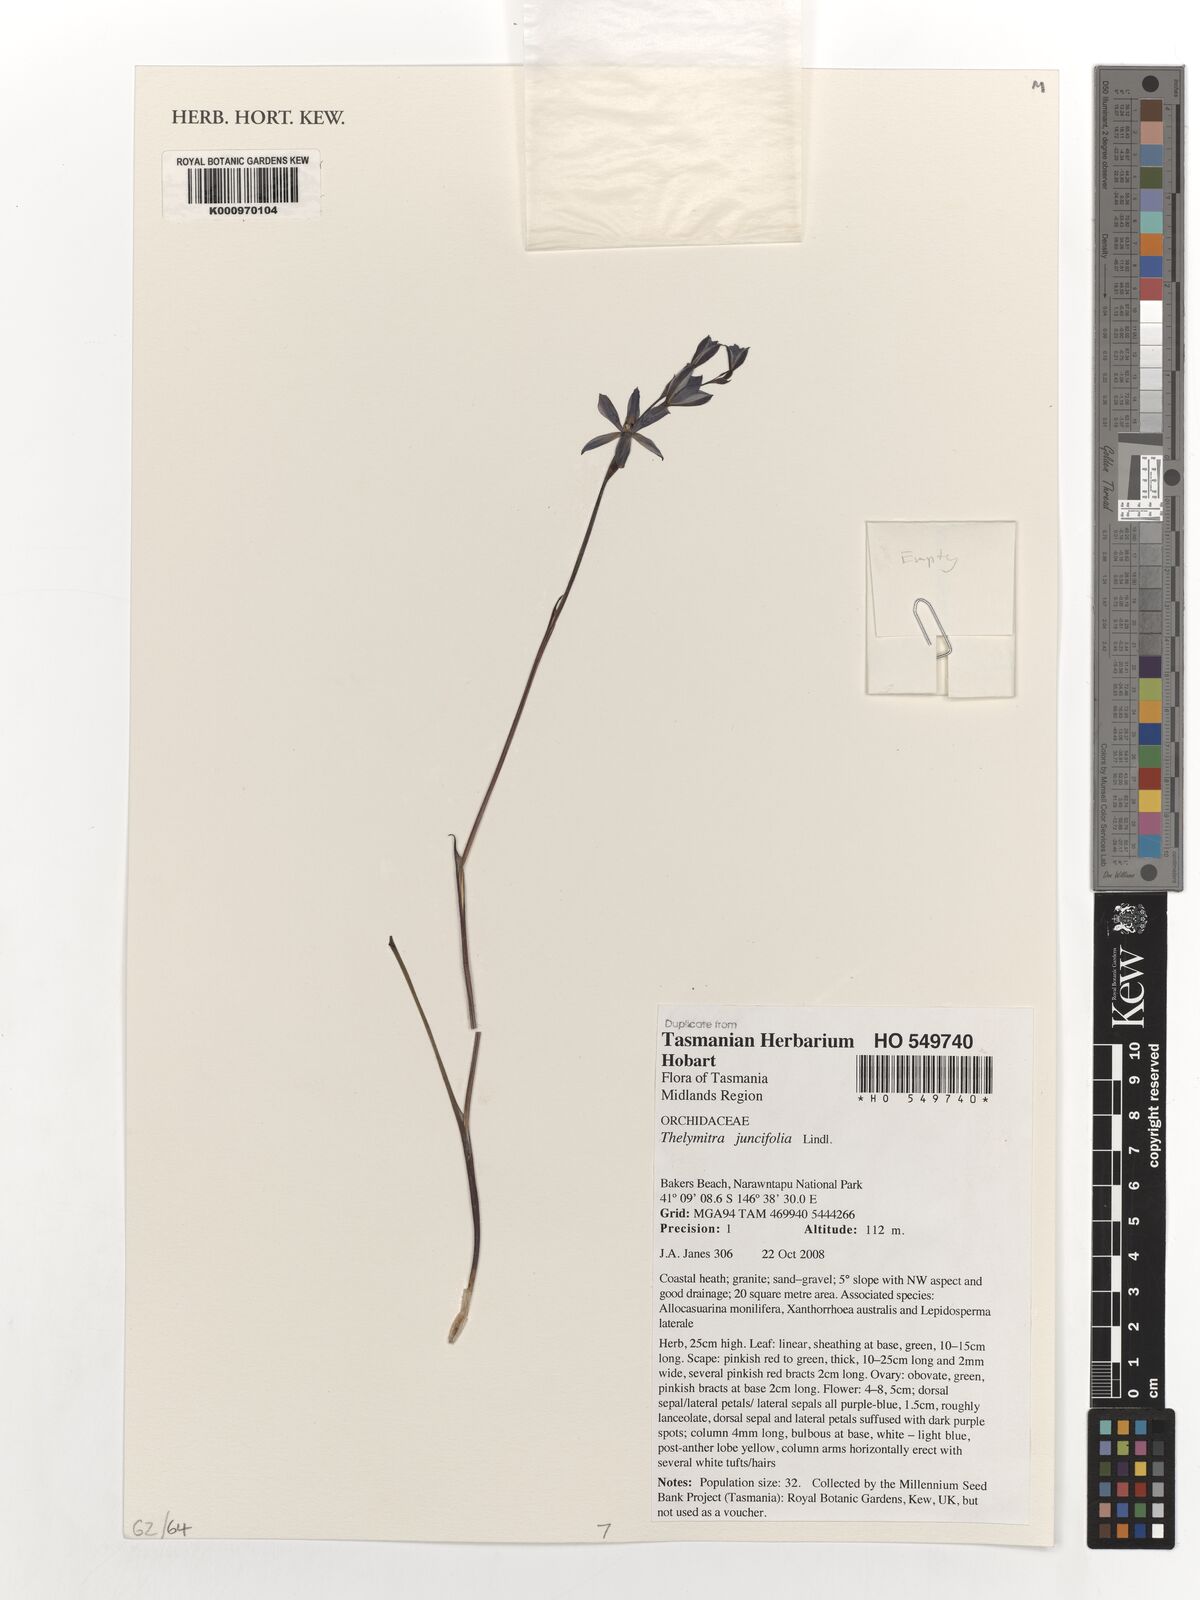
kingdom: Plantae
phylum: Tracheophyta
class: Liliopsida
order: Asparagales
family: Orchidaceae
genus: Thelymitra
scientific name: Thelymitra juncifolia
